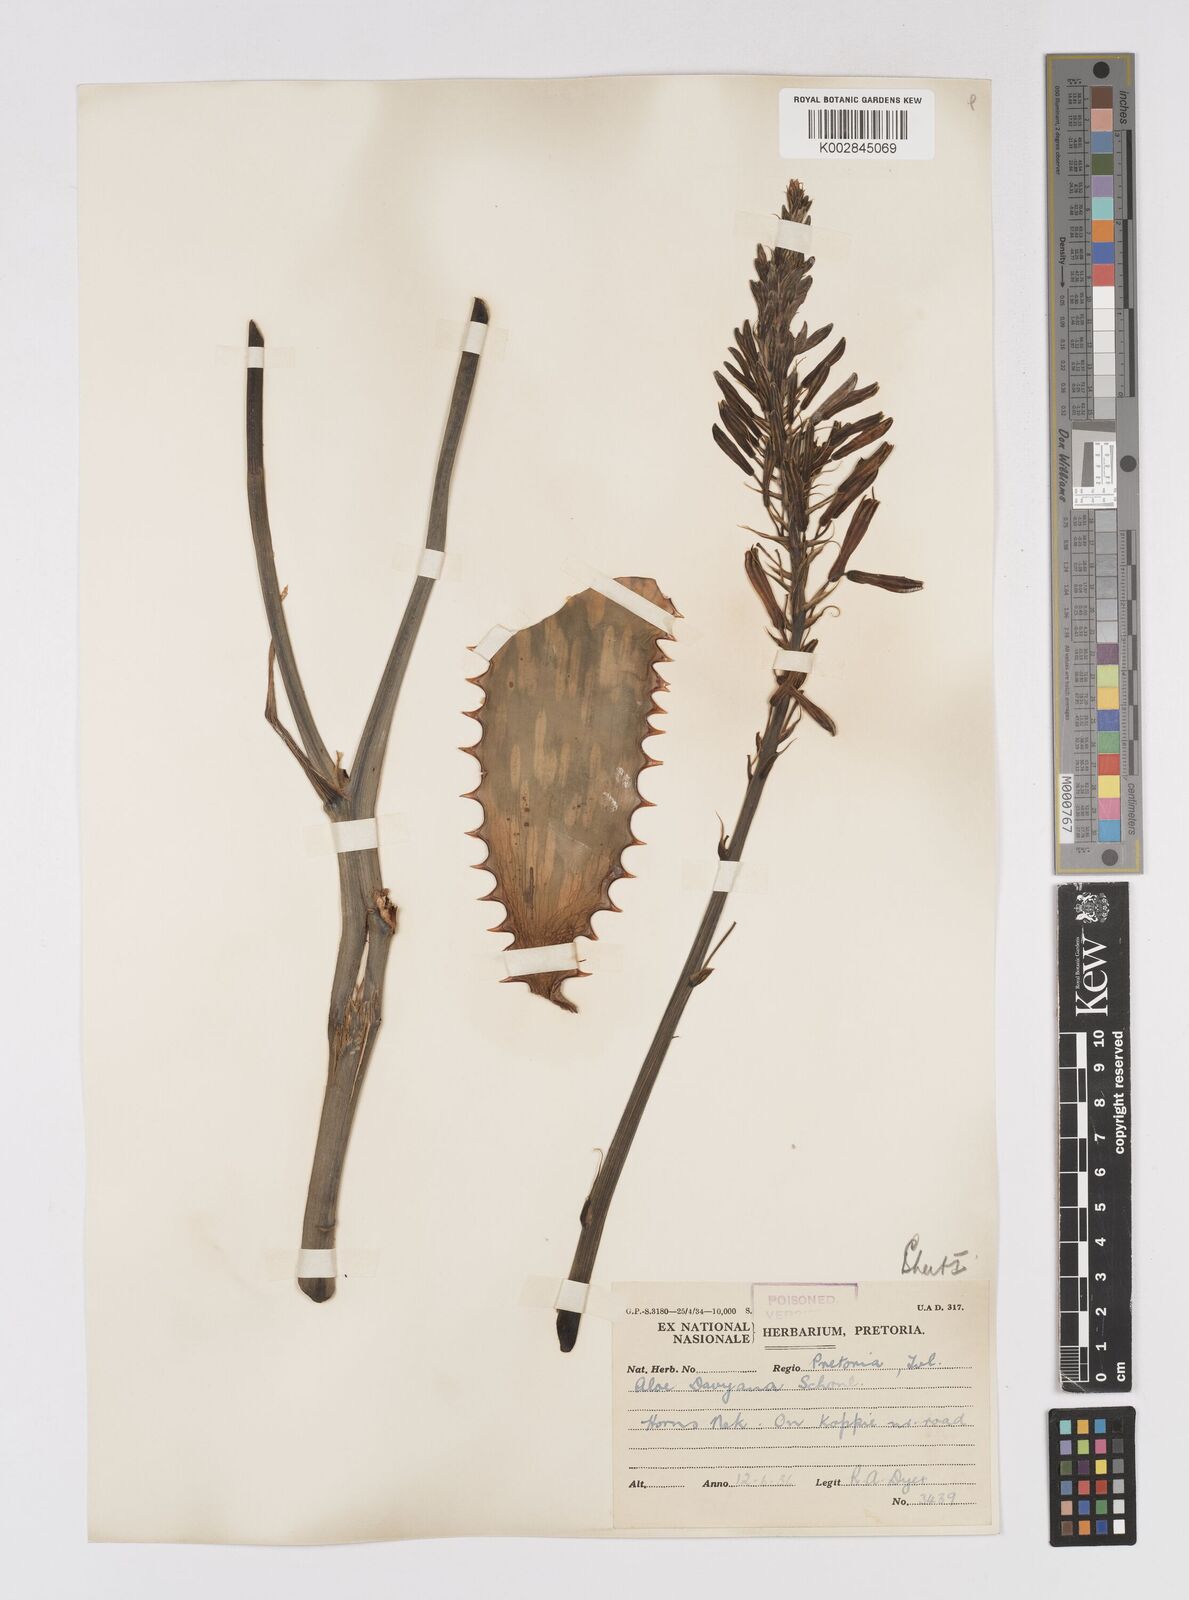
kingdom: Plantae
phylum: Tracheophyta
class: Liliopsida
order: Asparagales
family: Asphodelaceae
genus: Aloe
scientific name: Aloe davyana
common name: Spotted aloe
